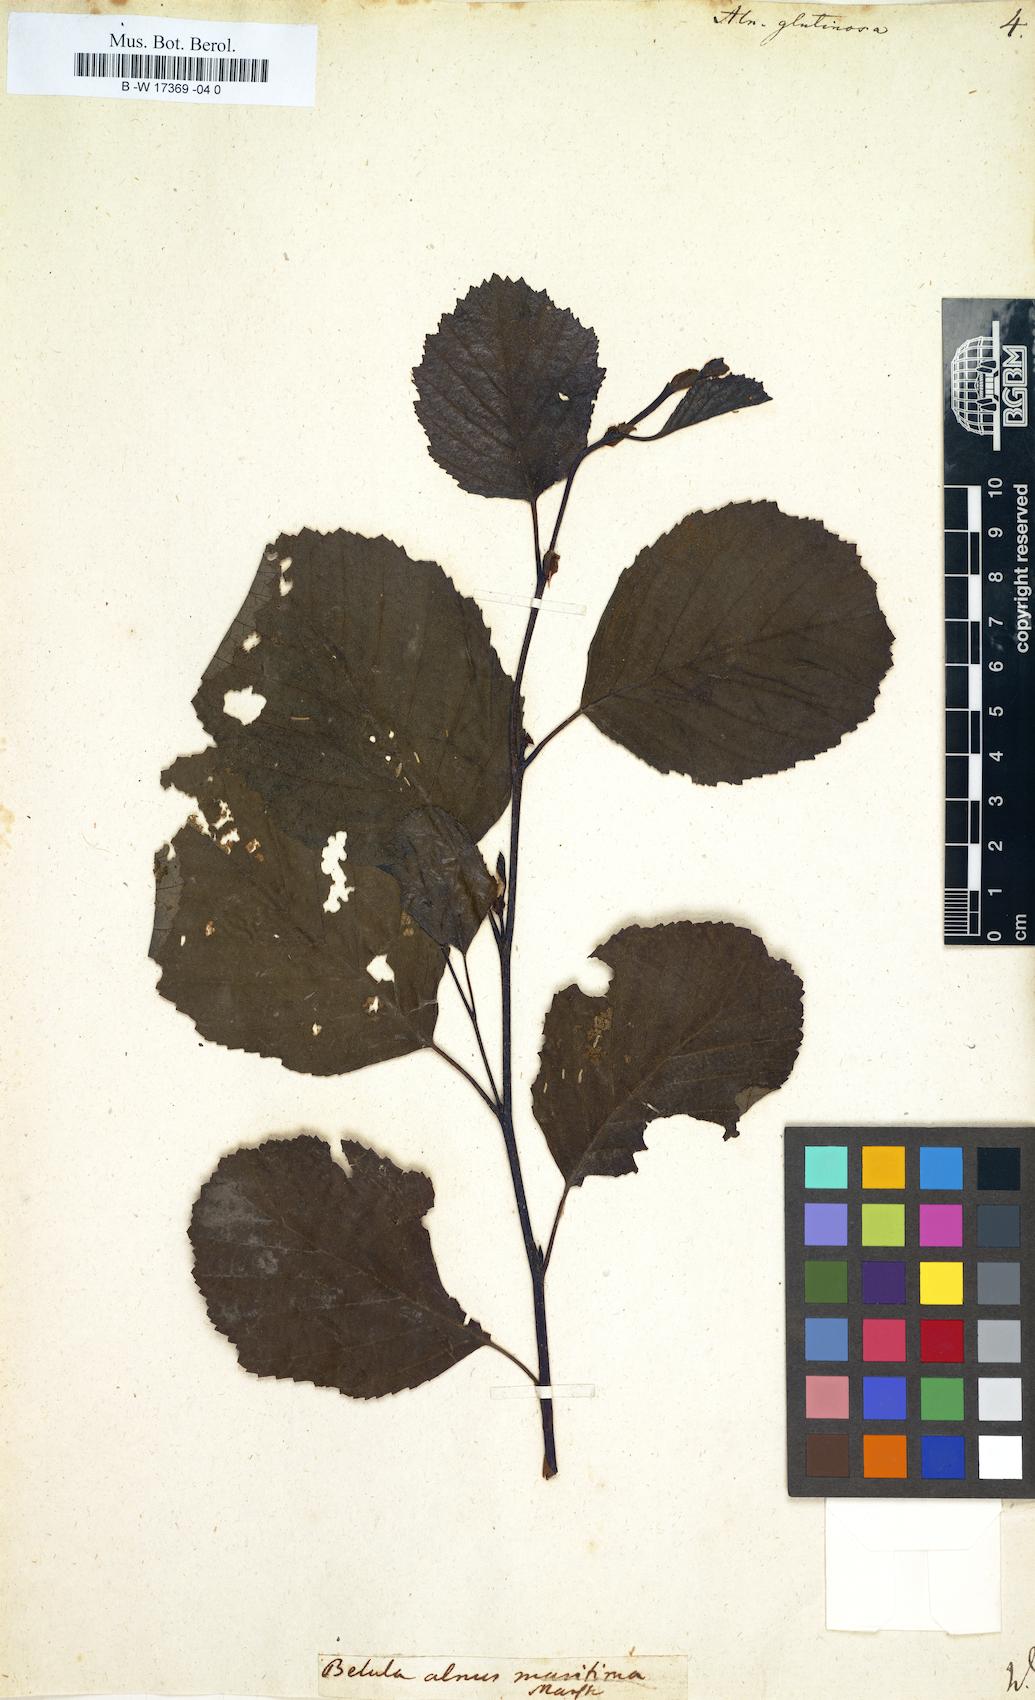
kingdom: Plantae
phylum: Tracheophyta
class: Magnoliopsida
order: Fagales
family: Betulaceae
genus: Alnus
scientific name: Alnus glutinosa
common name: Black alder
